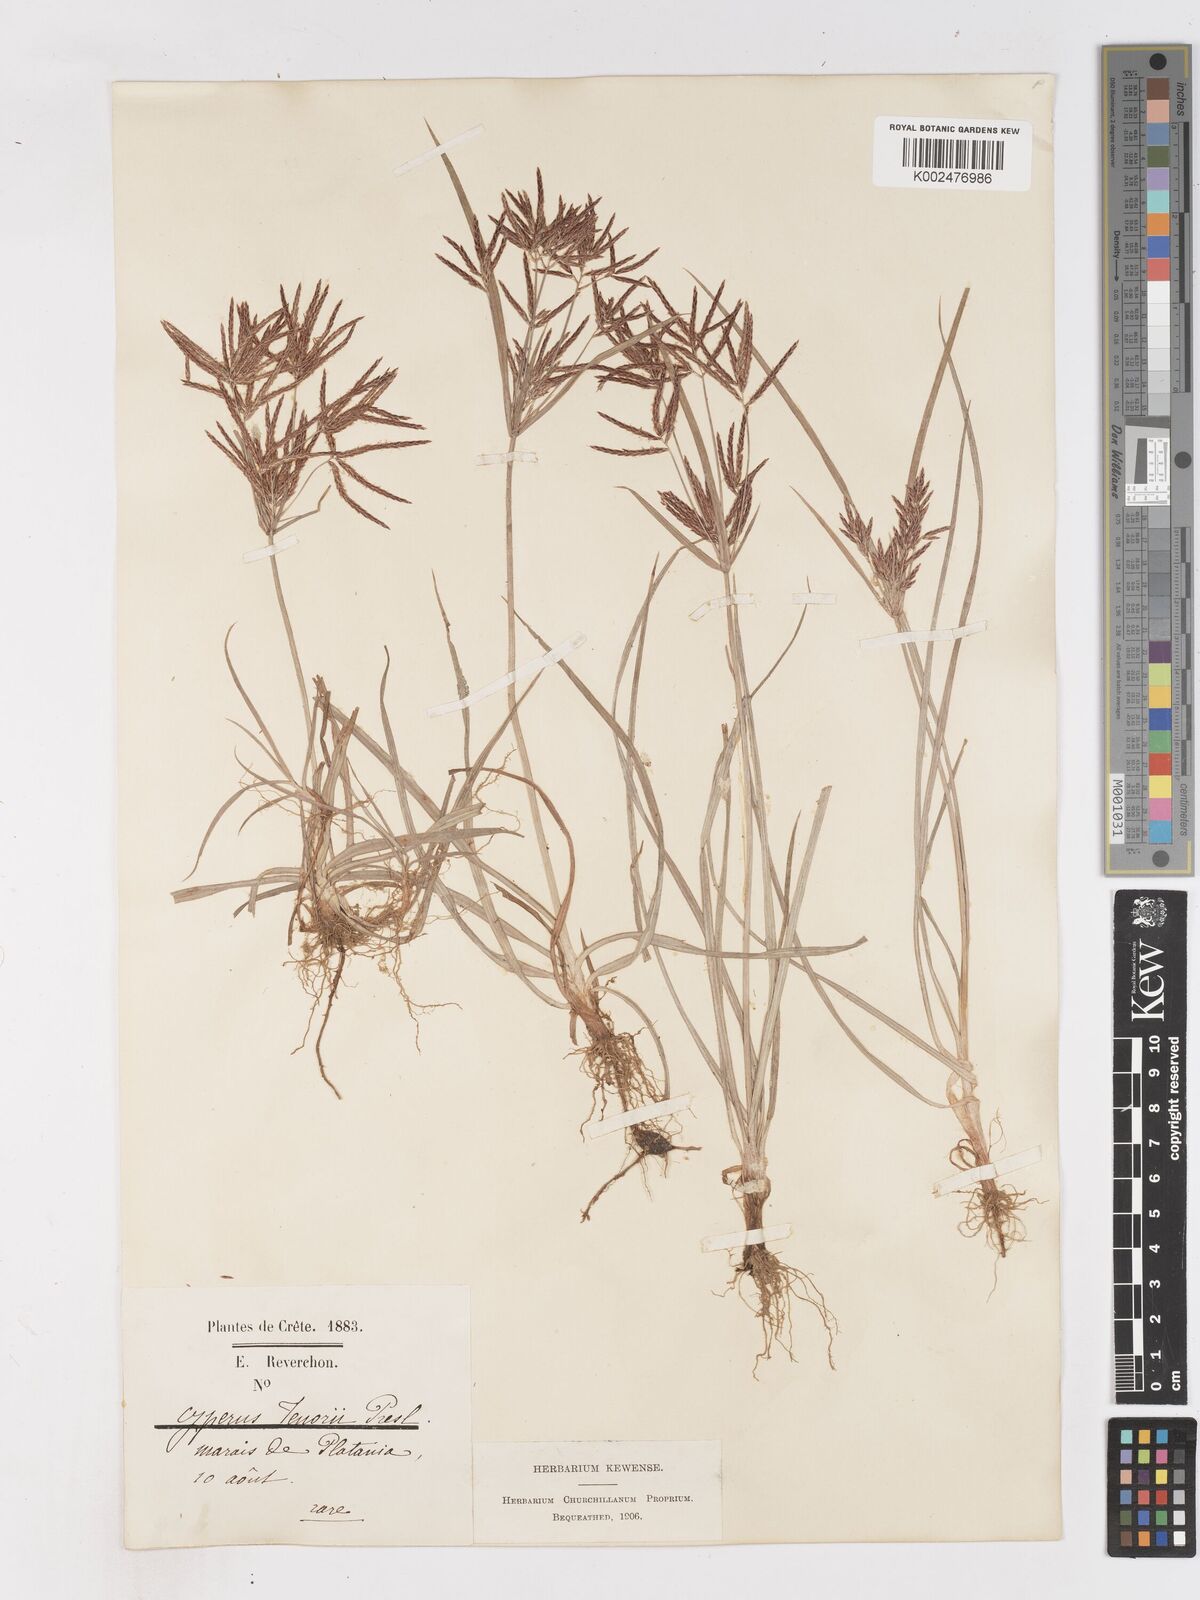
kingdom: Plantae
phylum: Tracheophyta
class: Liliopsida
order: Poales
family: Cyperaceae
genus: Cyperus
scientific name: Cyperus rotundus
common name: Nutgrass
